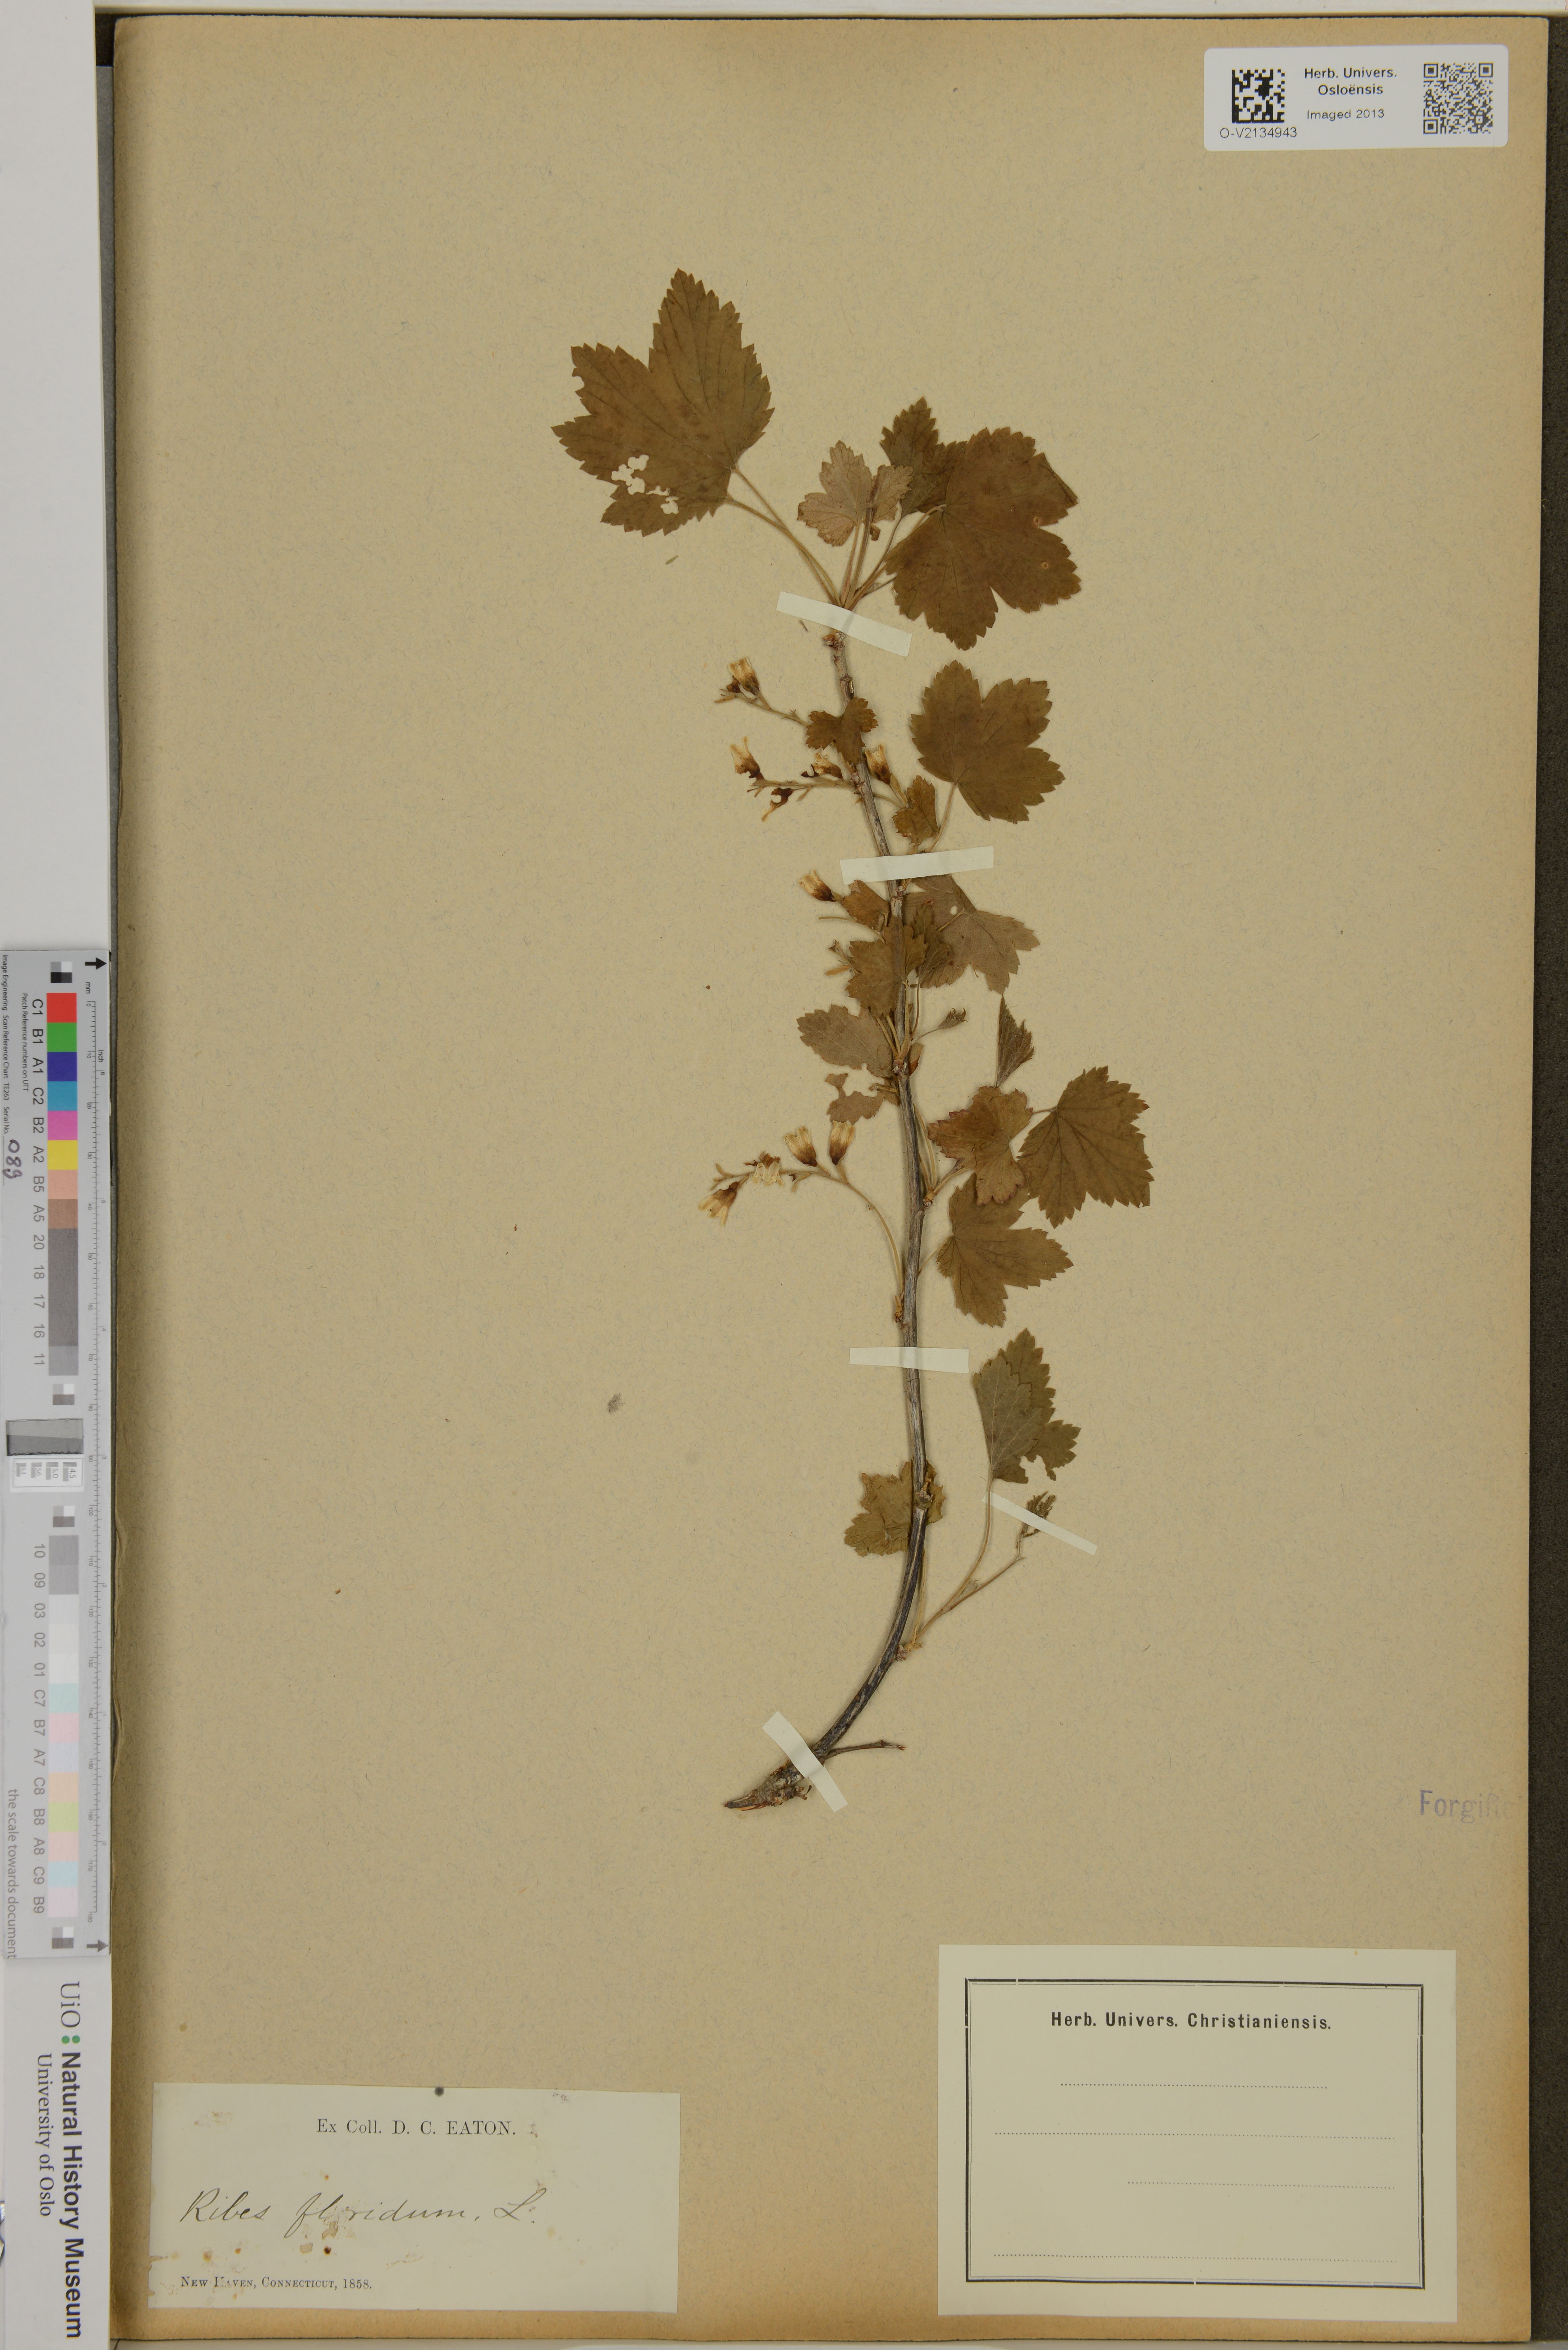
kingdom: Plantae
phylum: Tracheophyta
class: Magnoliopsida
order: Saxifragales
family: Grossulariaceae
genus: Ribes
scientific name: Ribes
